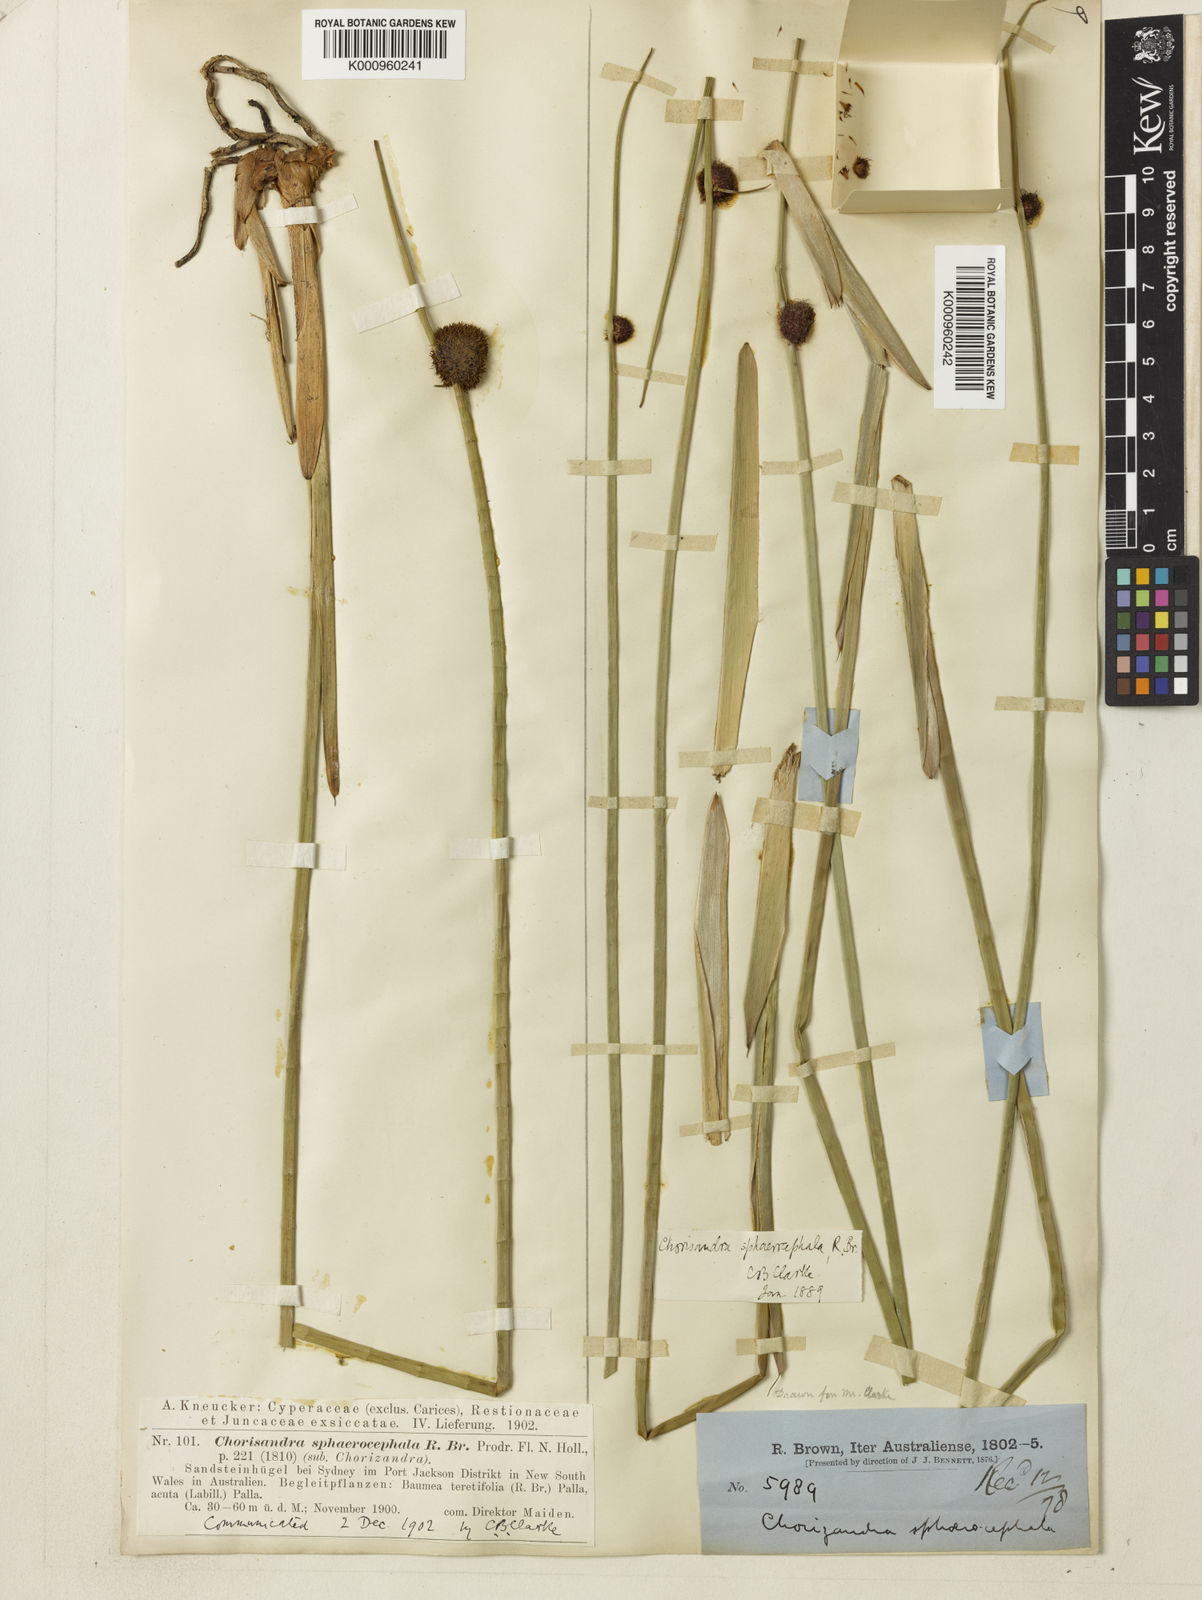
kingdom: Plantae
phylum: Tracheophyta
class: Liliopsida
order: Poales
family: Cyperaceae
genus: Chorizandra
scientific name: Chorizandra sphaerocephala
